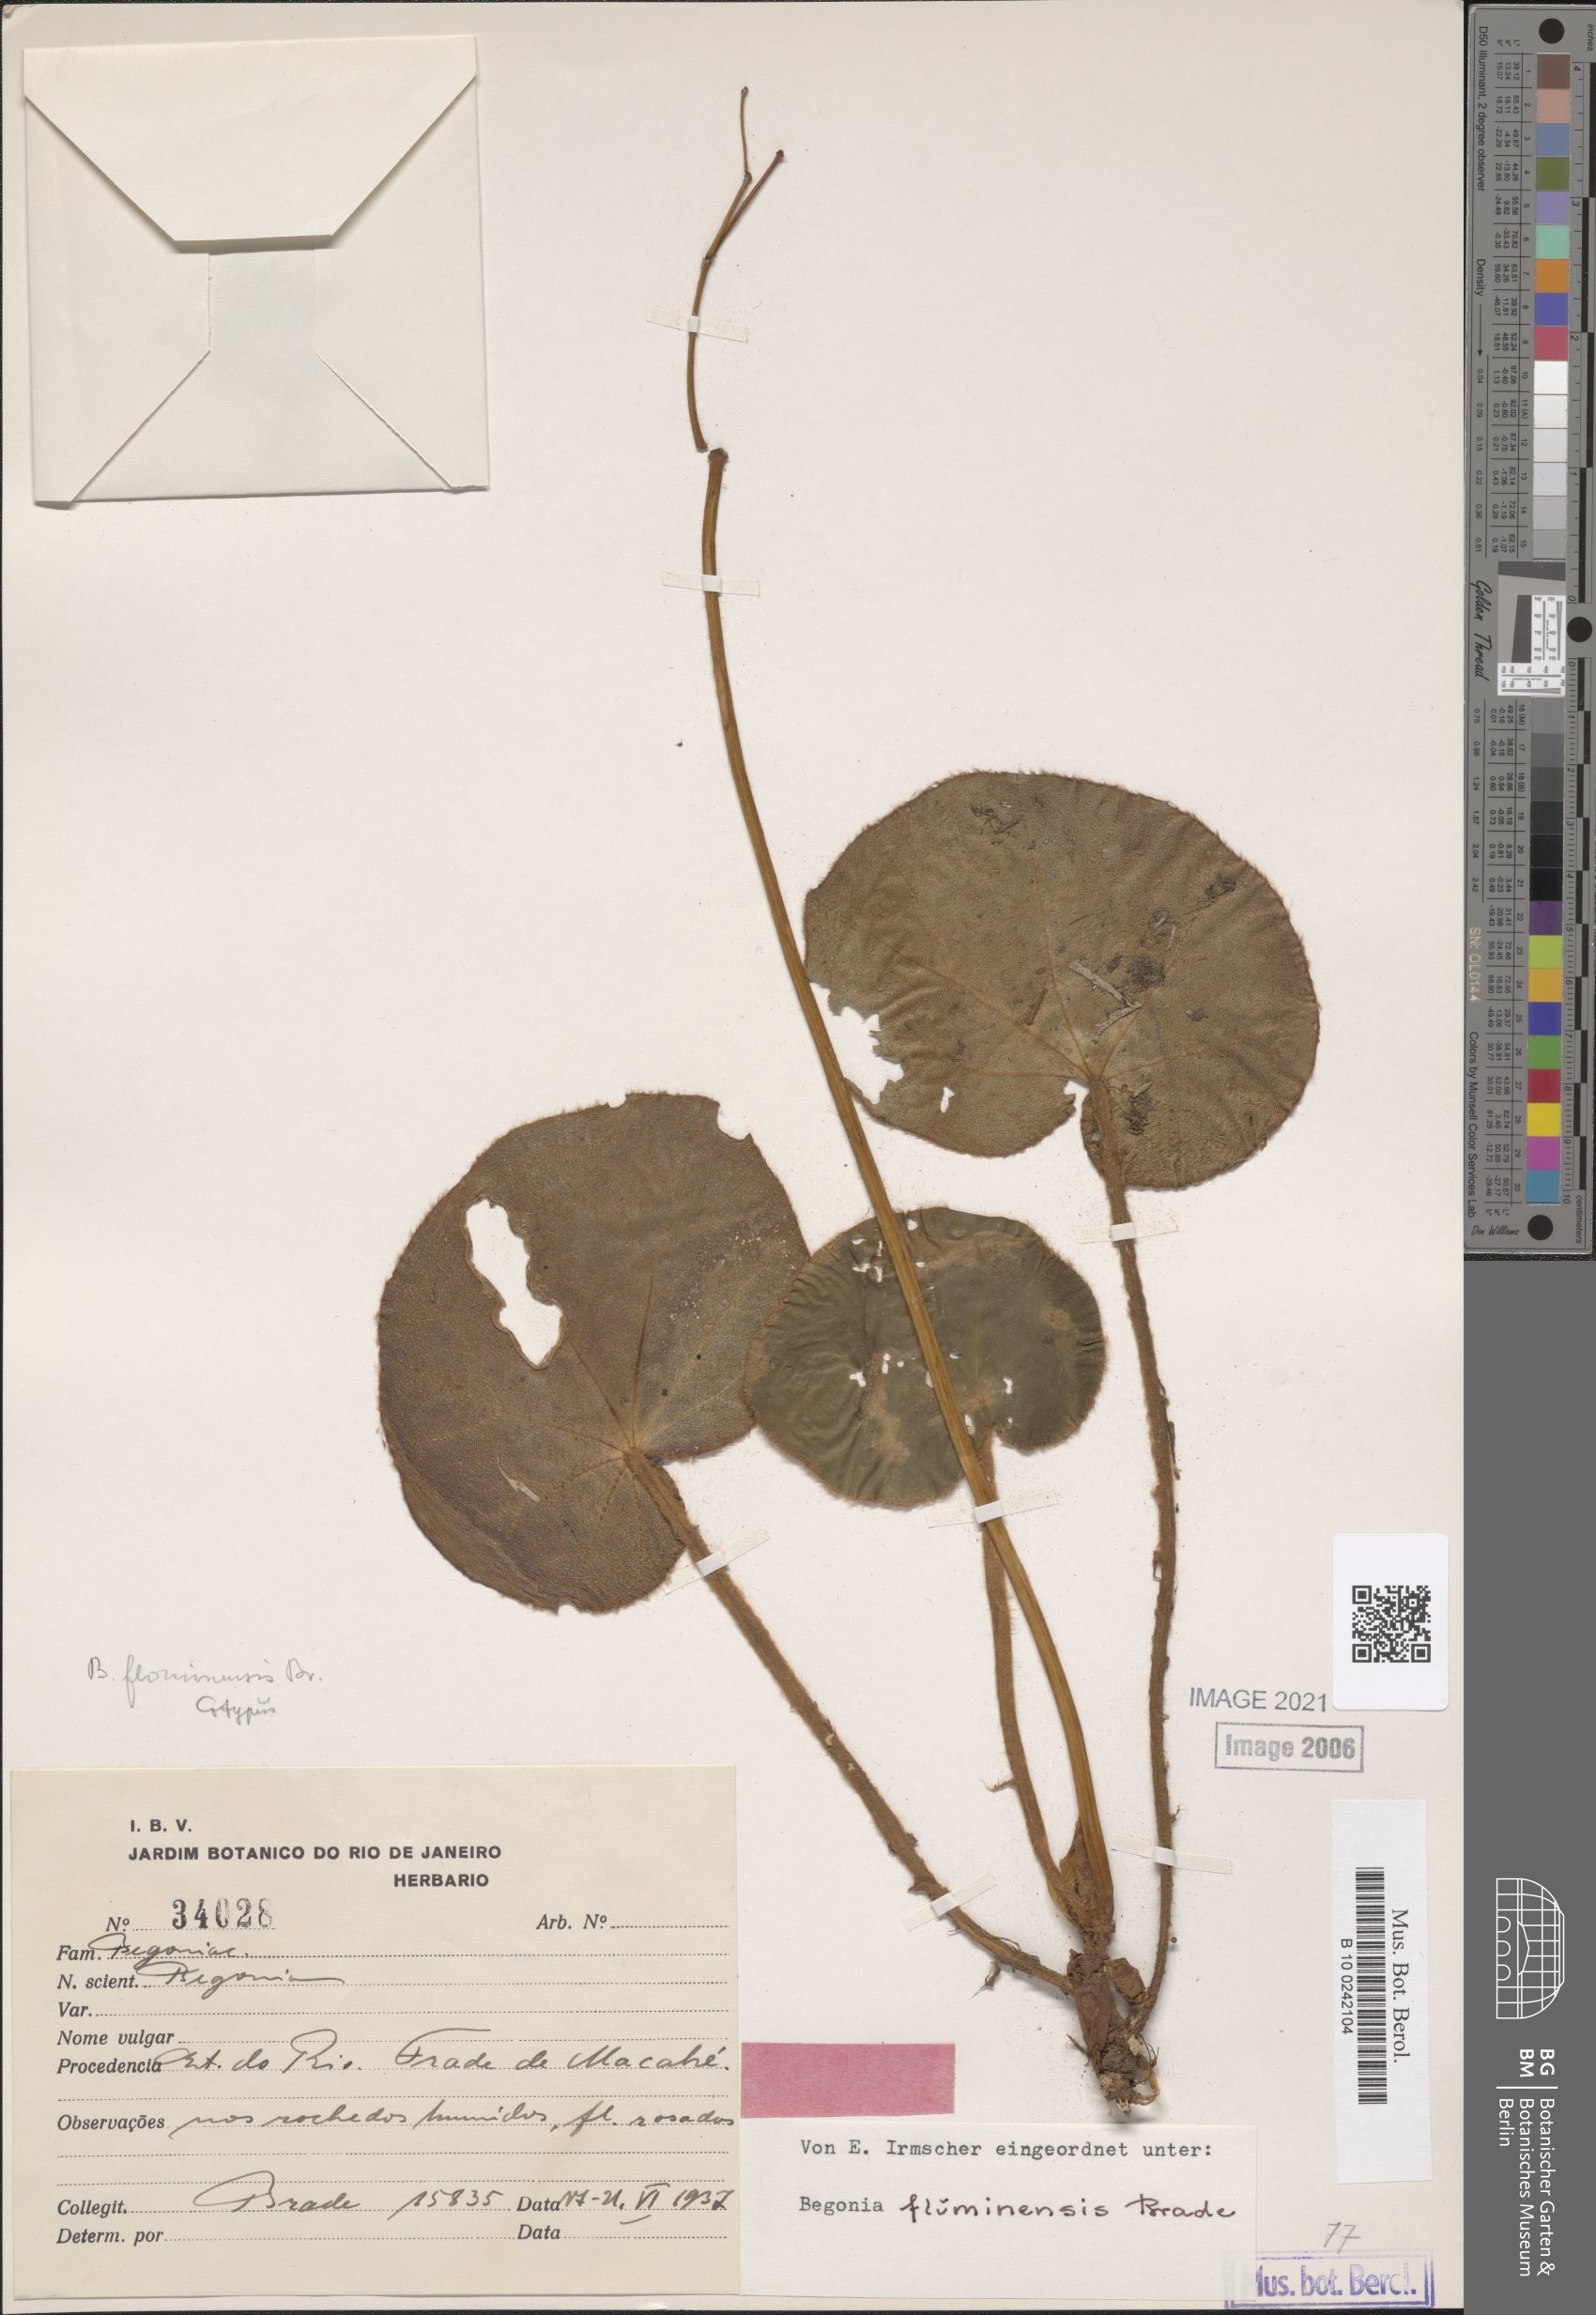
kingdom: Plantae
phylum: Tracheophyta
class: Magnoliopsida
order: Cucurbitales
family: Begoniaceae
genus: Begonia
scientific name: Begonia fluminensis
